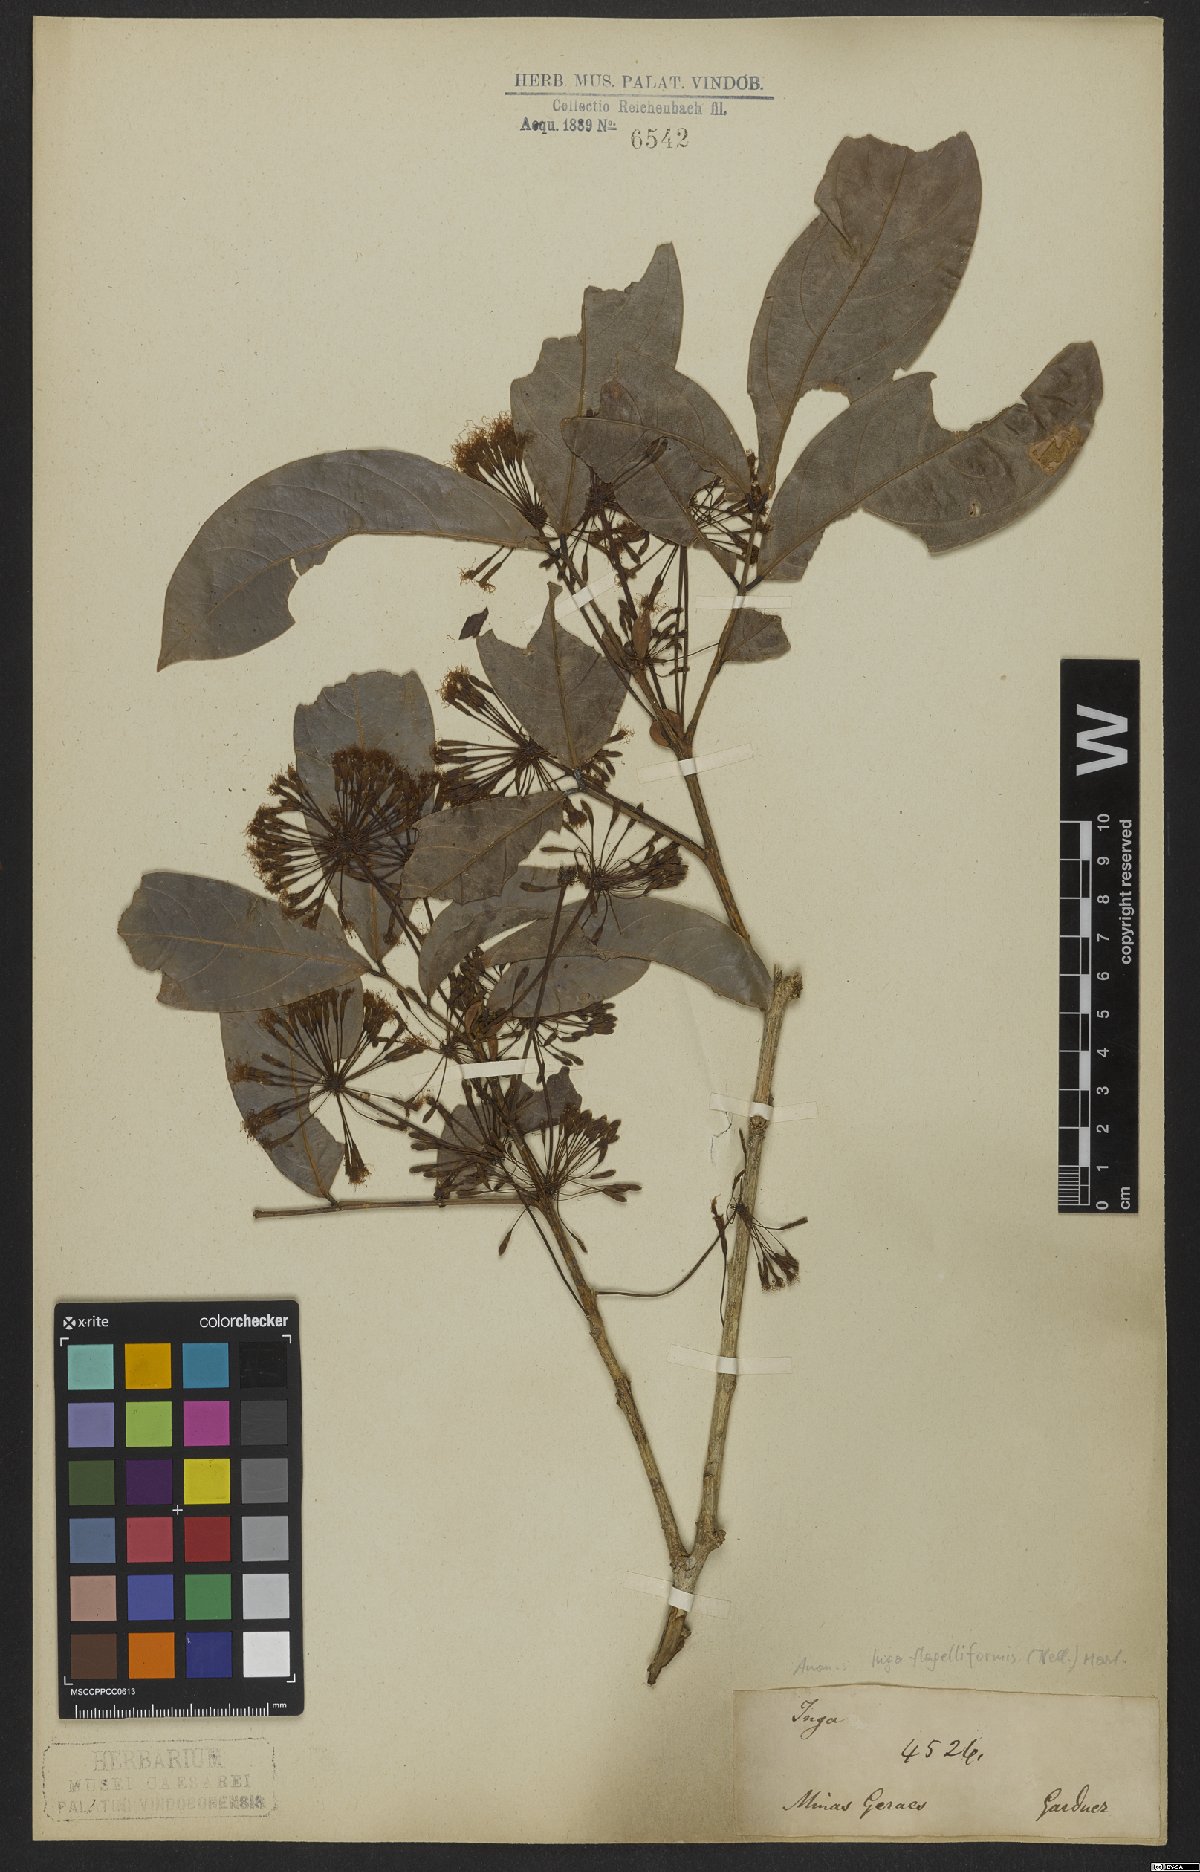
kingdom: Plantae
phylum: Tracheophyta
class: Magnoliopsida
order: Fabales
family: Fabaceae
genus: Inga
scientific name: Inga flagelliformis
